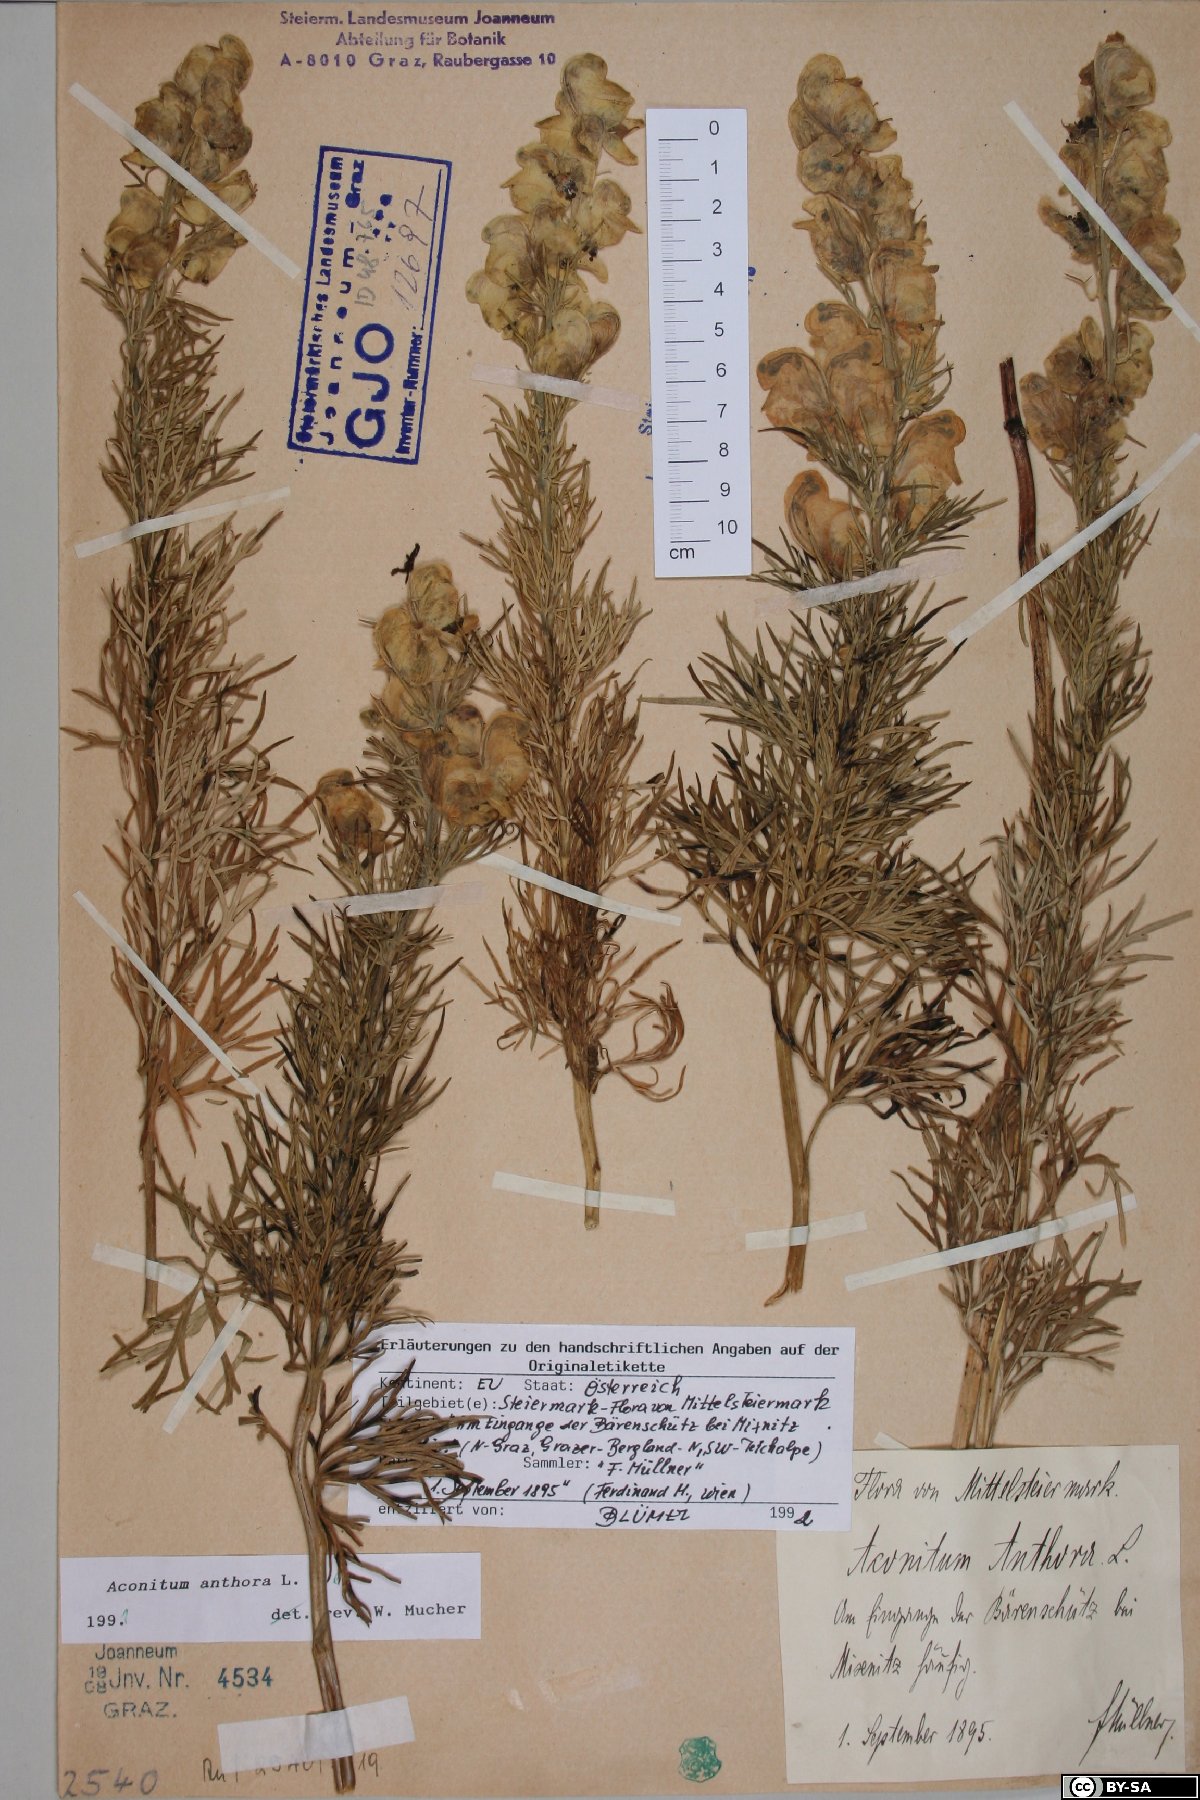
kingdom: Plantae
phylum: Tracheophyta
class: Magnoliopsida
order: Ranunculales
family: Ranunculaceae
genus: Aconitum
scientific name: Aconitum anthora
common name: Yellow monkshood
